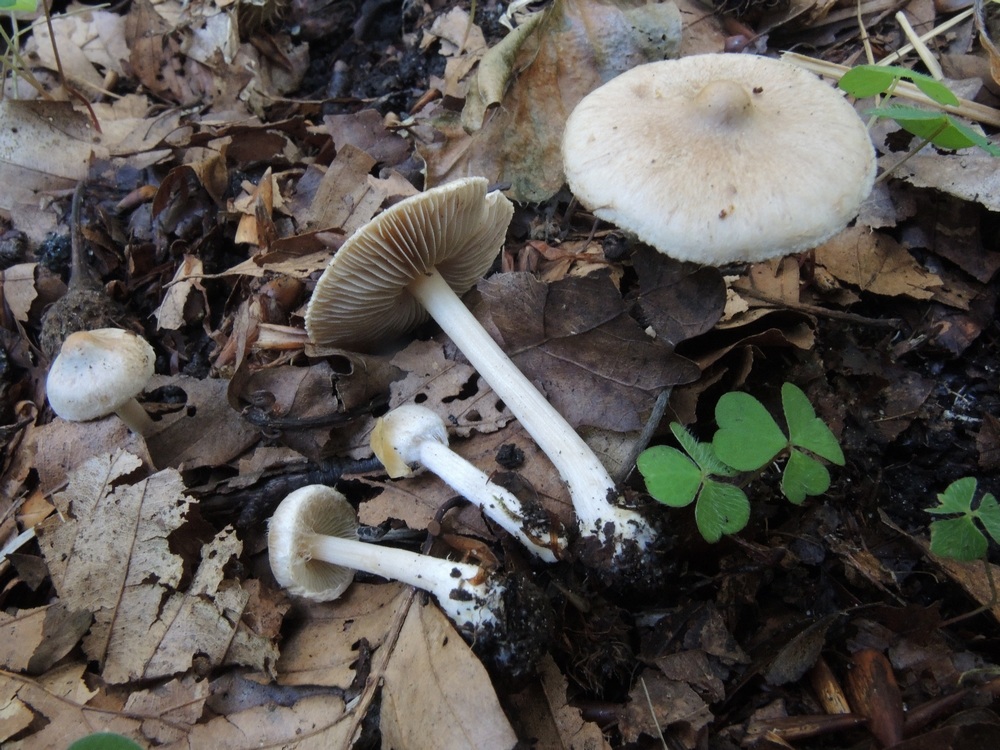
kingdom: Fungi
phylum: Basidiomycota
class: Agaricomycetes
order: Agaricales
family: Inocybaceae
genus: Inocybe
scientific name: Inocybe sindonia
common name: bleg trævlhat
